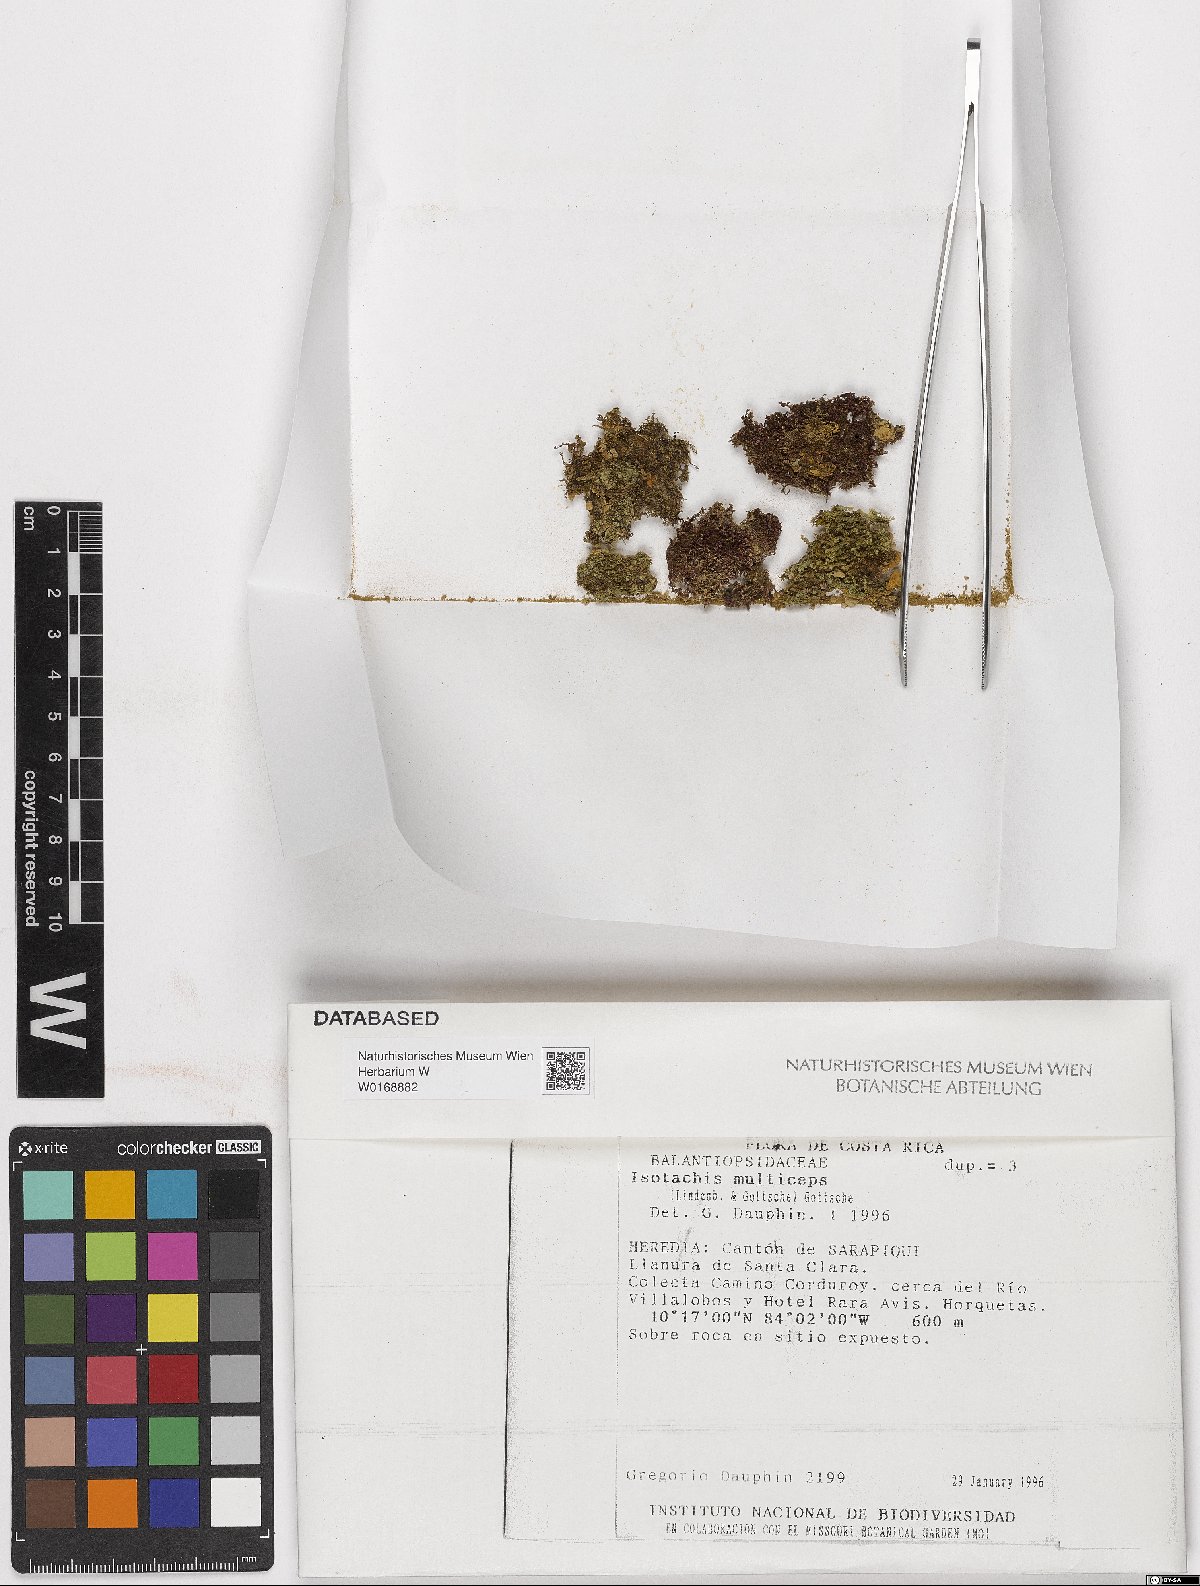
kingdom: Plantae
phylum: Marchantiophyta
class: Jungermanniopsida
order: Jungermanniales
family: Balantiopsidaceae
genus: Isotachis
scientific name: Isotachis multiceps
